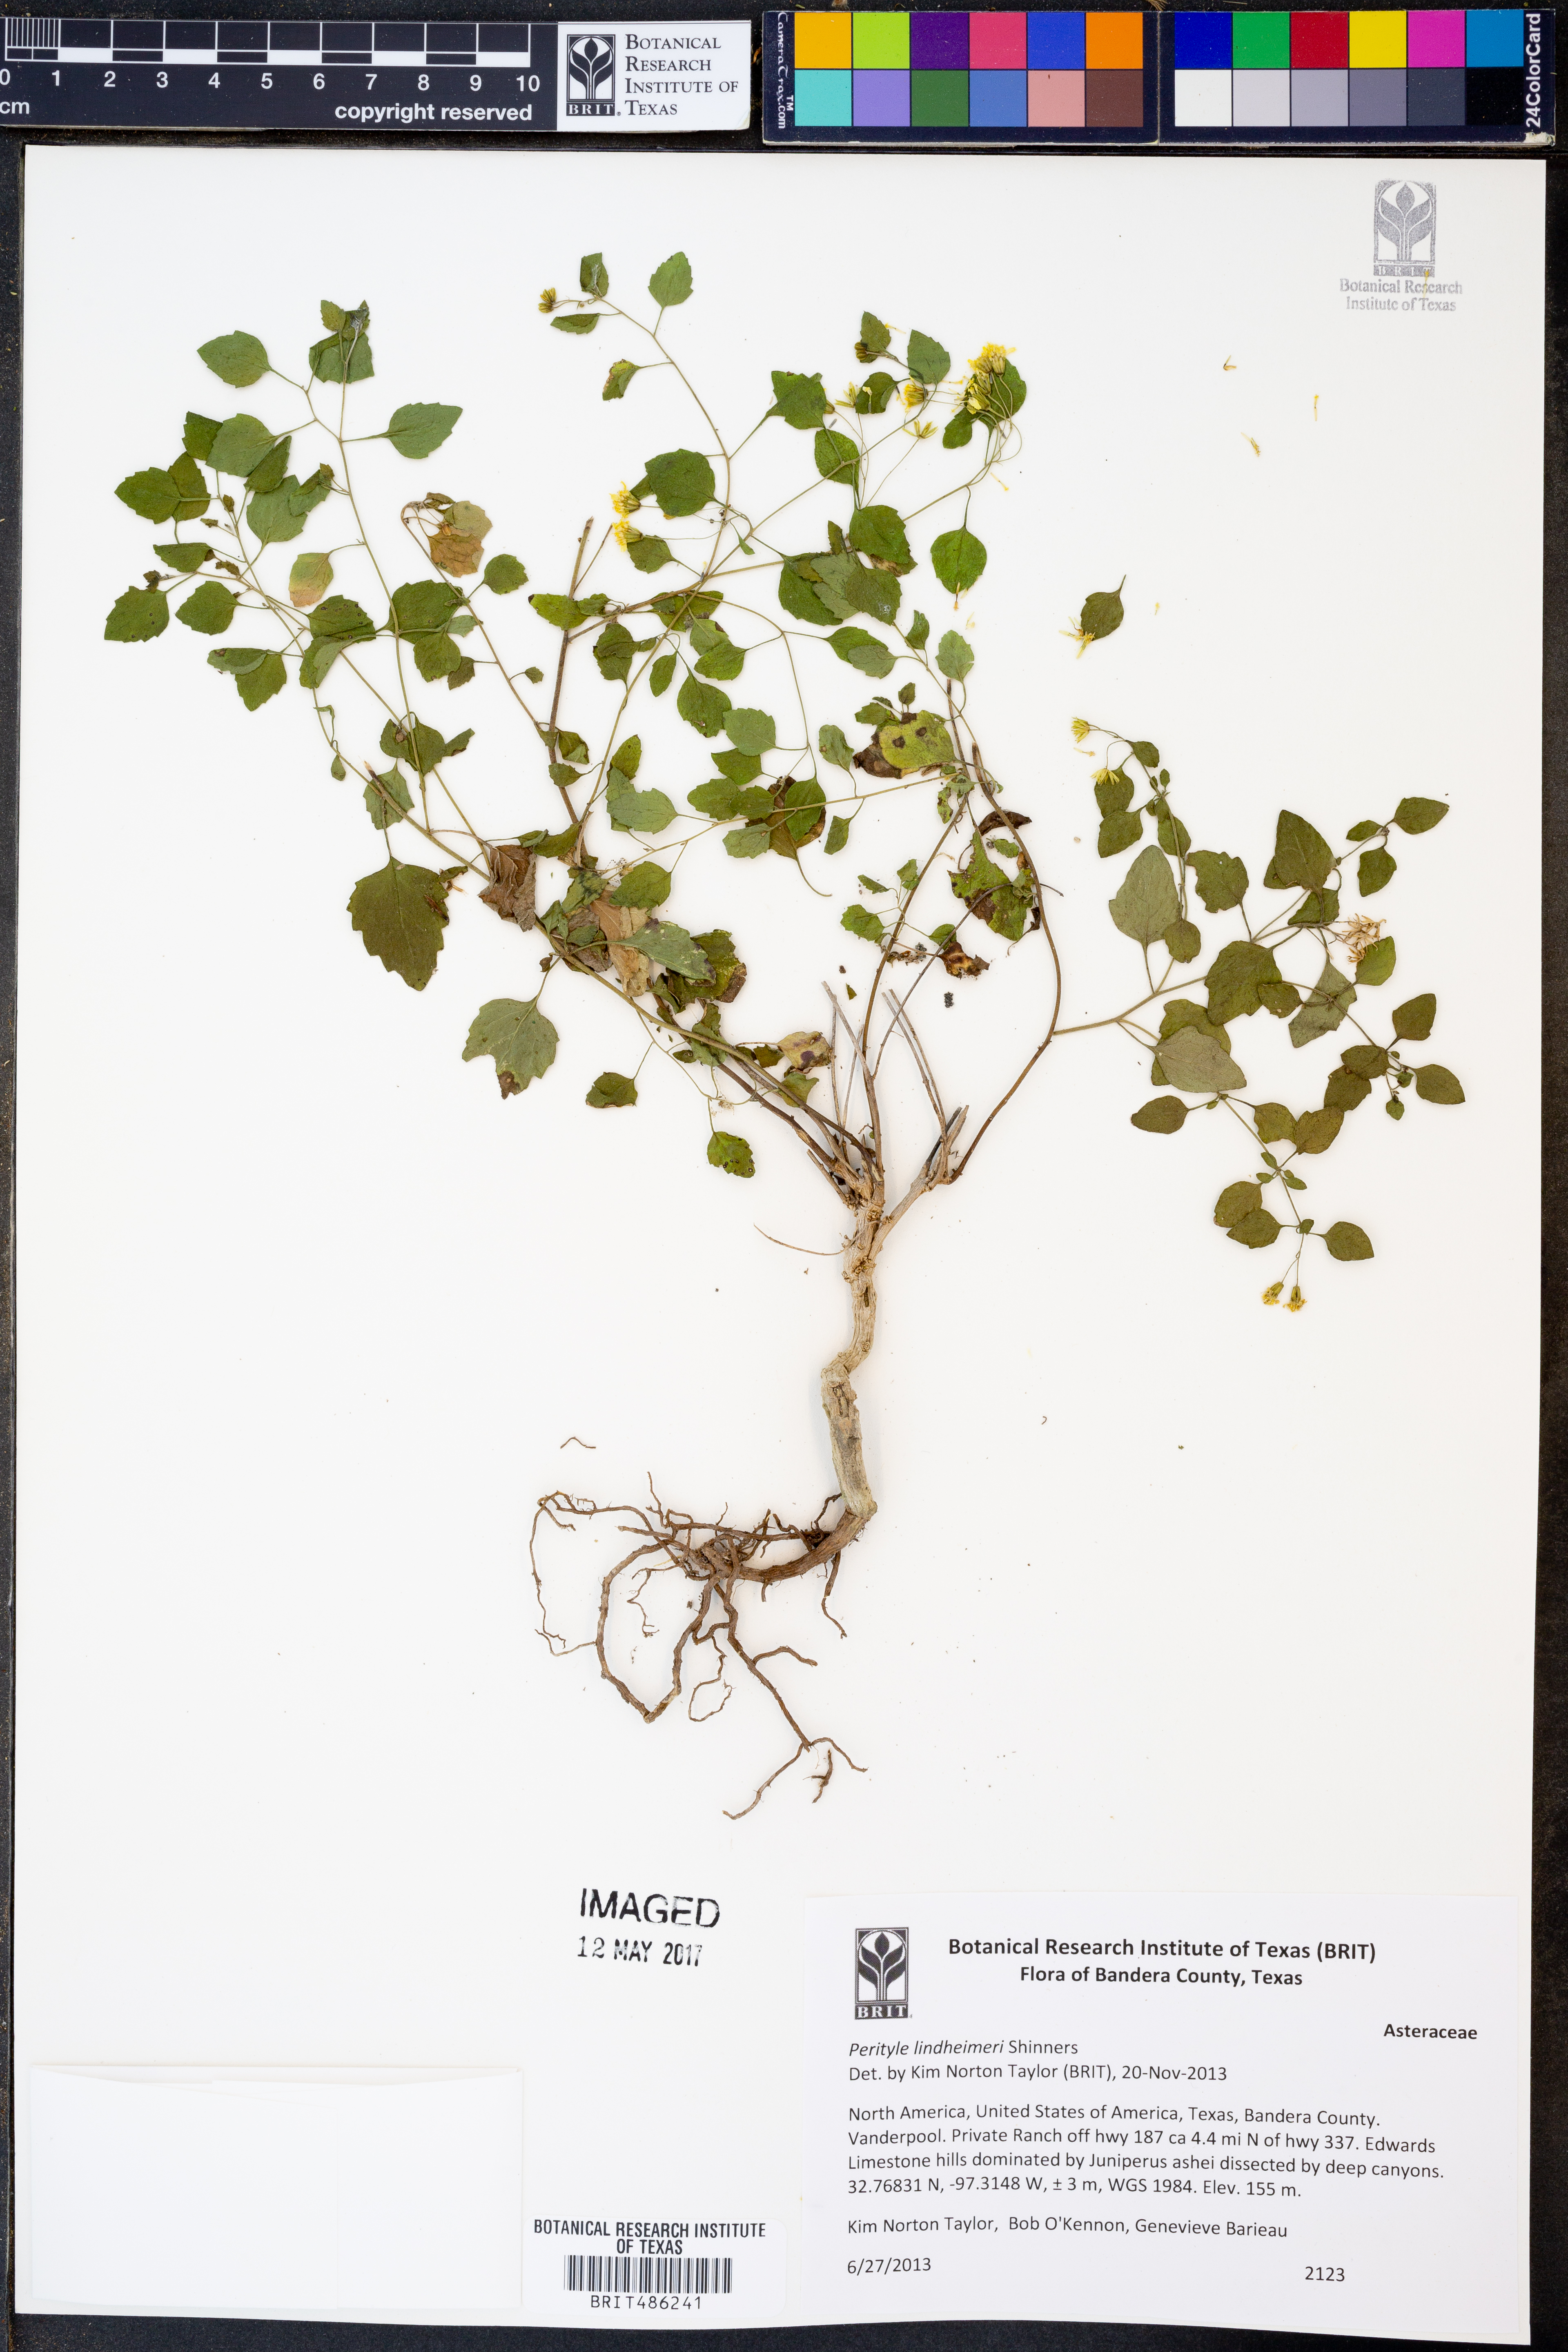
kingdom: Plantae
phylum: Tracheophyta
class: Magnoliopsida
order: Asterales
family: Asteraceae
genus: Laphamia
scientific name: Laphamia lindheimeri
